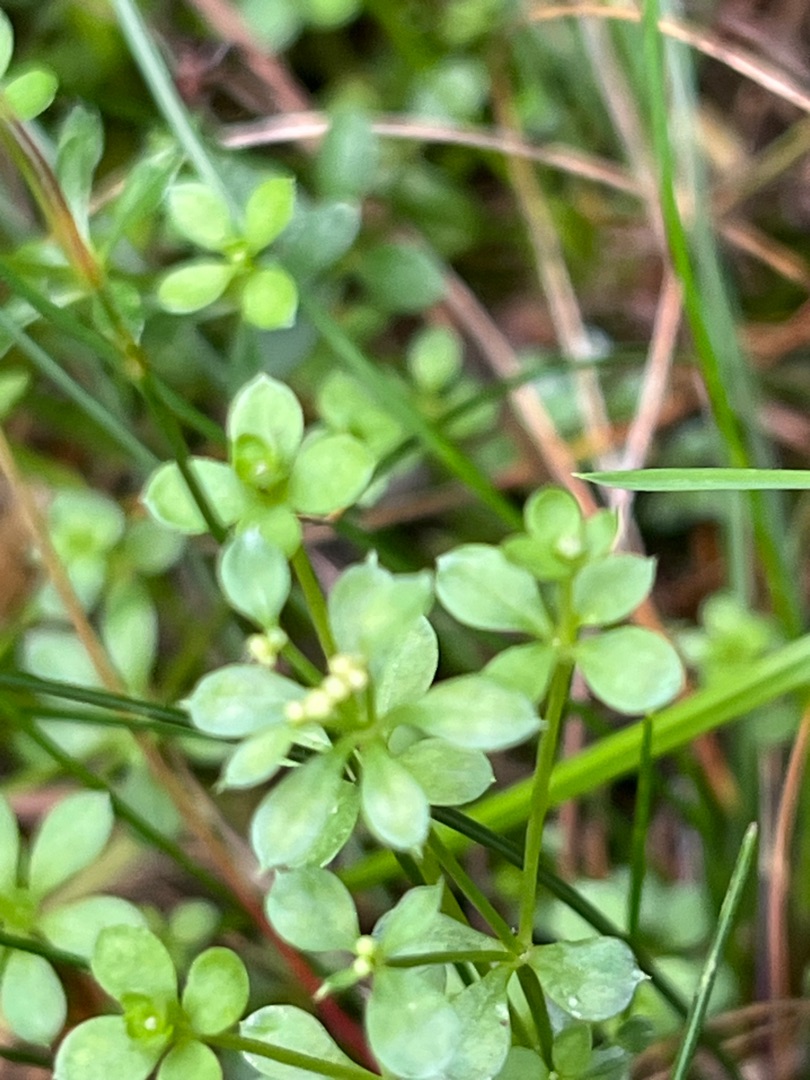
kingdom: Plantae
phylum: Tracheophyta
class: Magnoliopsida
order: Gentianales
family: Rubiaceae
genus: Galium
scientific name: Galium saxatile
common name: Lyng-snerre
